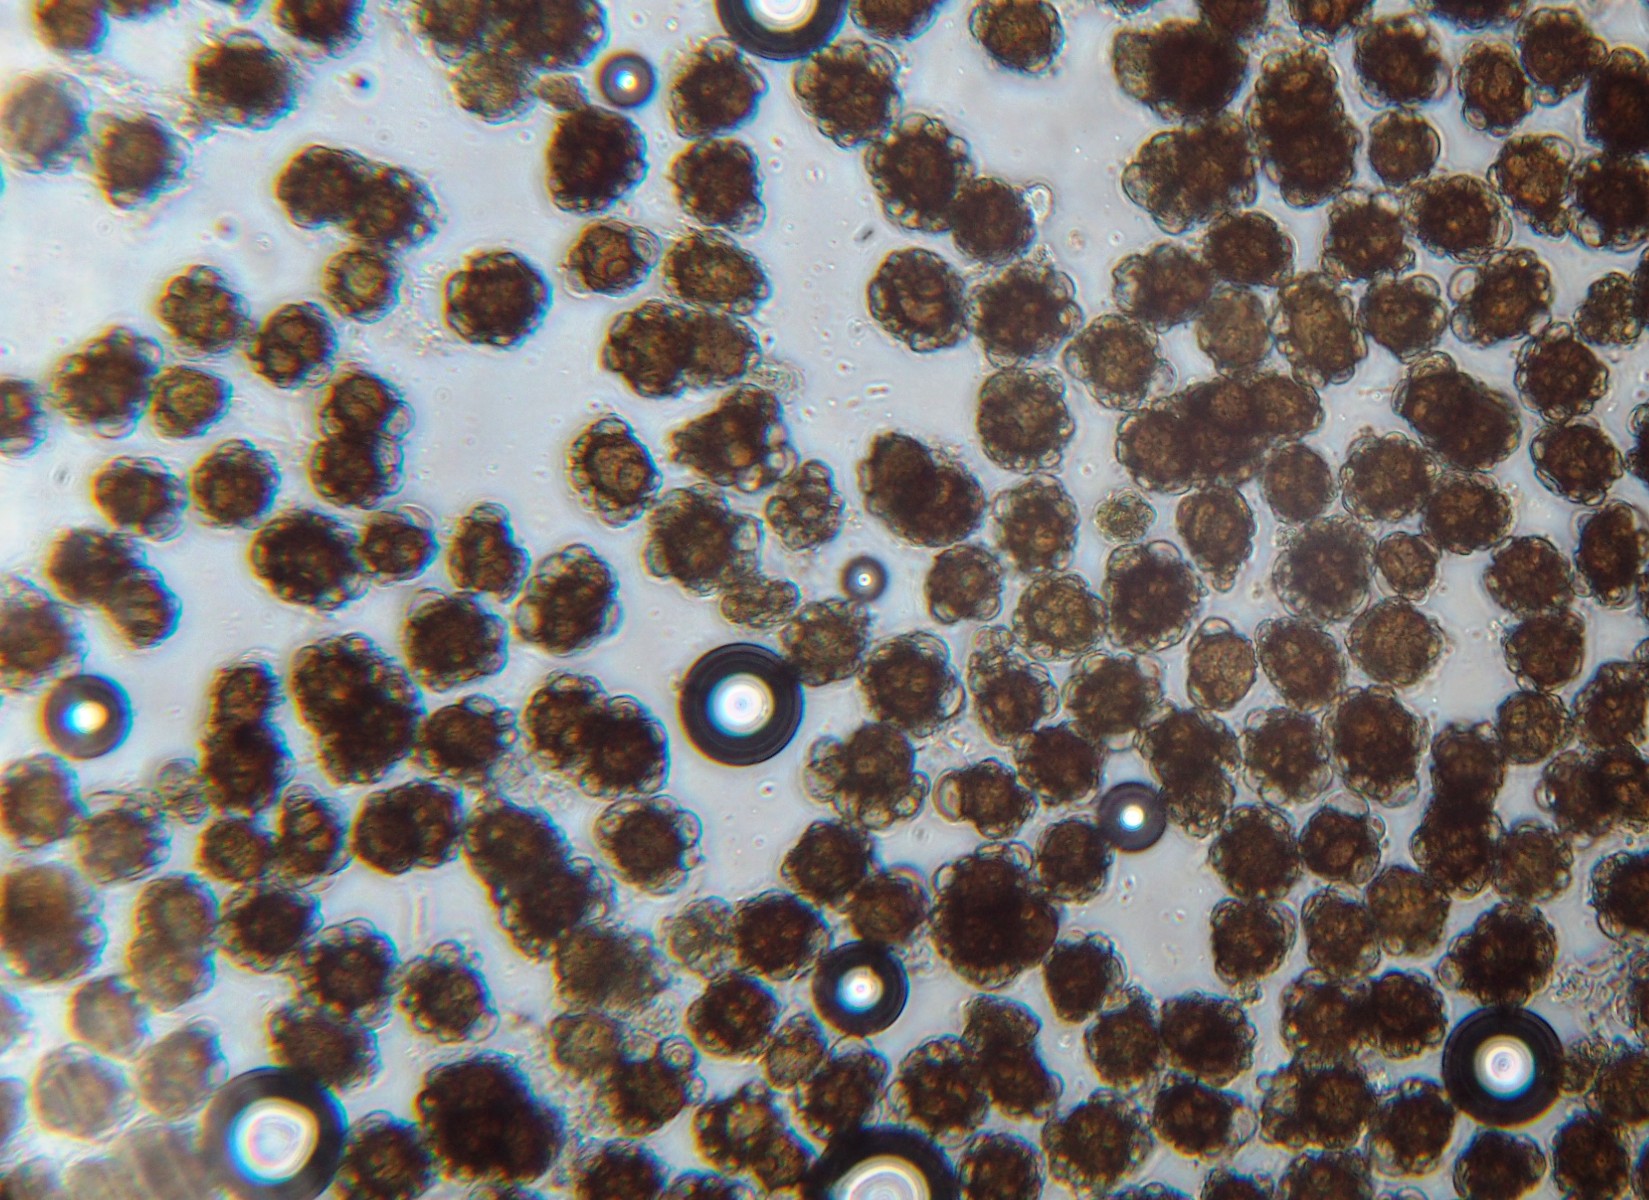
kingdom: Fungi
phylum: Basidiomycota
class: Ustilaginomycetes
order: Urocystidales
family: Urocystidaceae
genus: Urocystis
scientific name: Urocystis eranthidis
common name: erantis-brand
